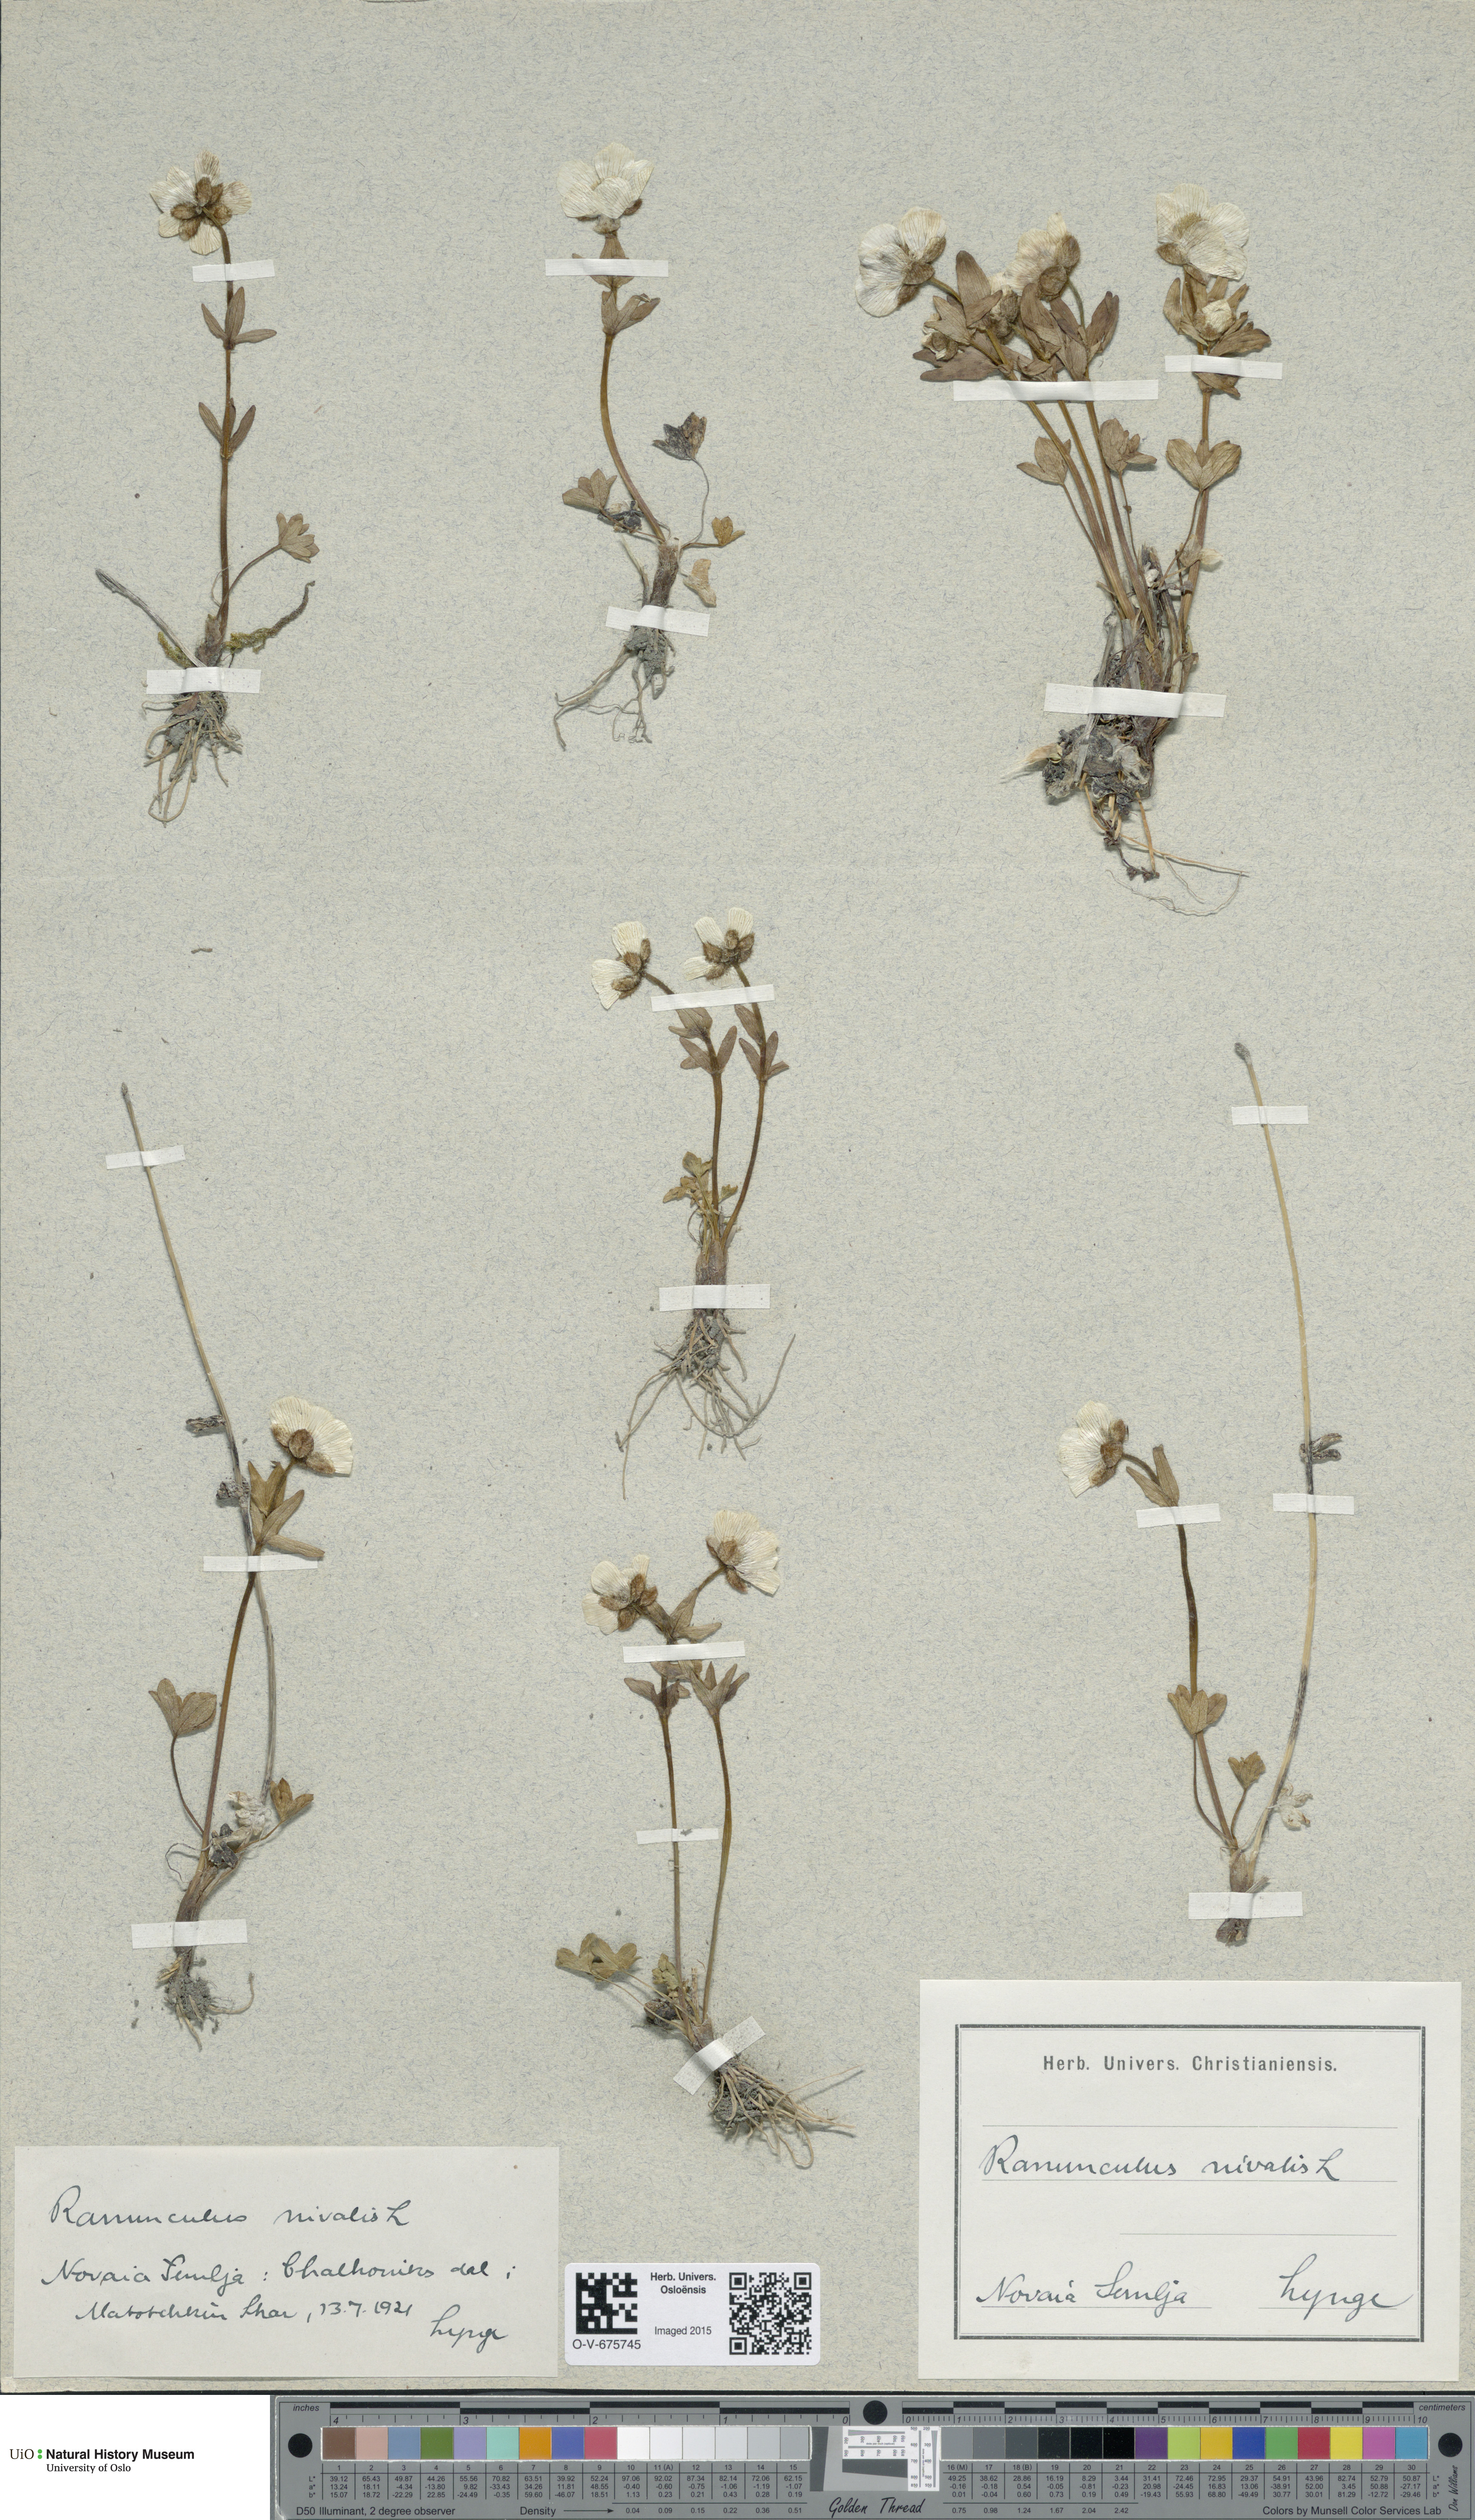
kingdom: Plantae
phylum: Tracheophyta
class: Magnoliopsida
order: Ranunculales
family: Ranunculaceae
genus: Ranunculus
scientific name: Ranunculus nivalis
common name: Snow buttercup
